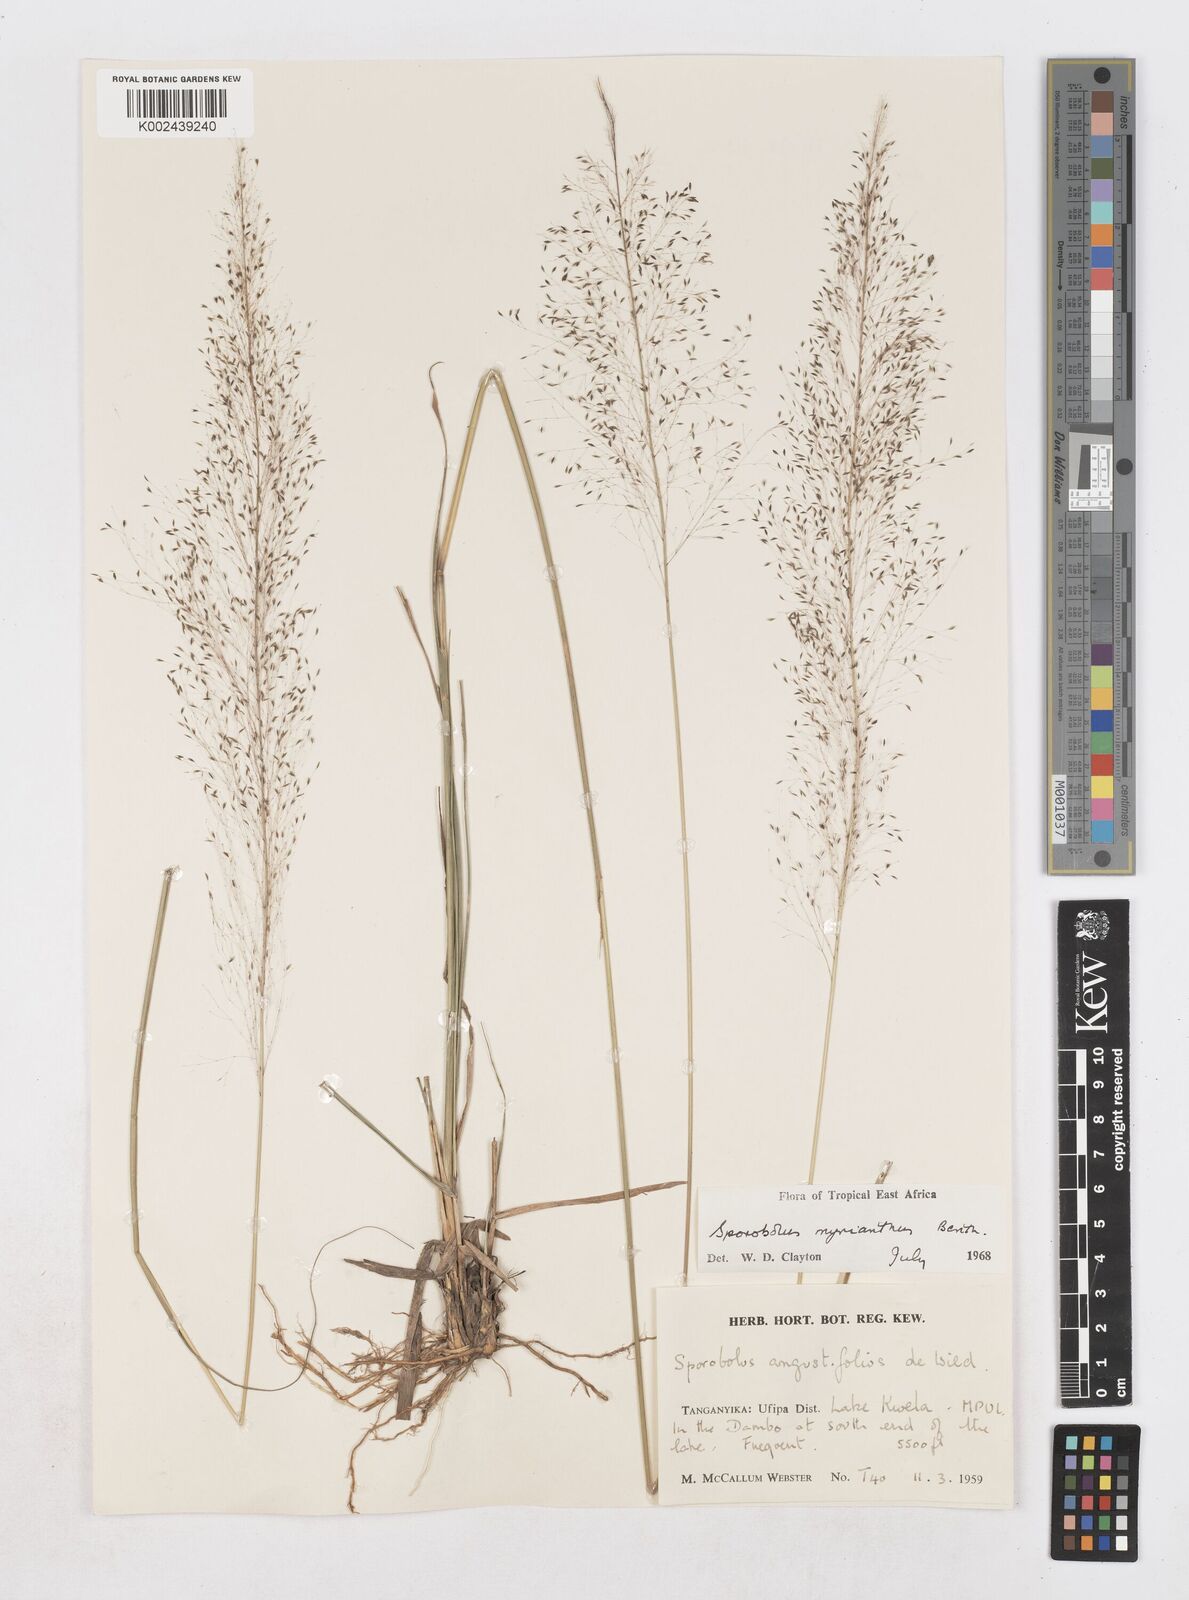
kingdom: Plantae
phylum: Tracheophyta
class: Liliopsida
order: Poales
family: Poaceae
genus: Sporobolus
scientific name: Sporobolus myrianthus
